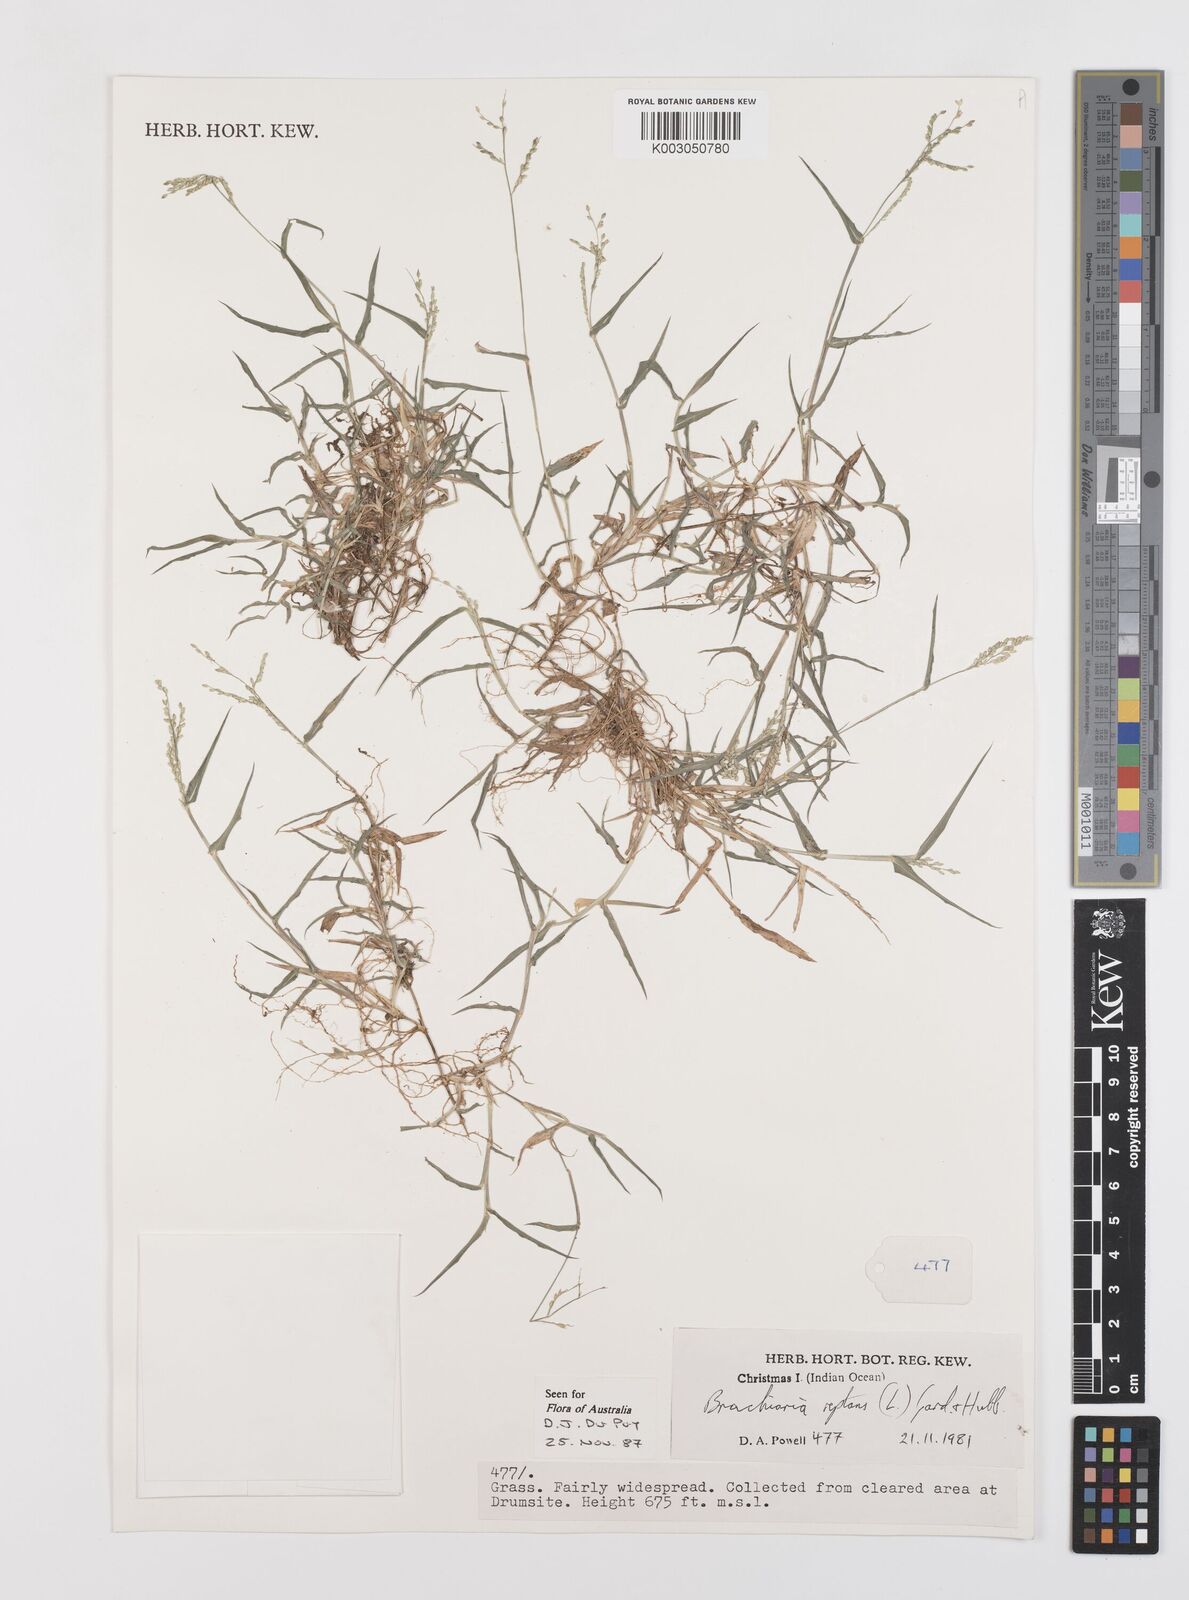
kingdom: Plantae
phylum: Tracheophyta
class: Liliopsida
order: Poales
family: Poaceae
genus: Urochloa
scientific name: Urochloa reptans
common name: Sprawling signalgrass
